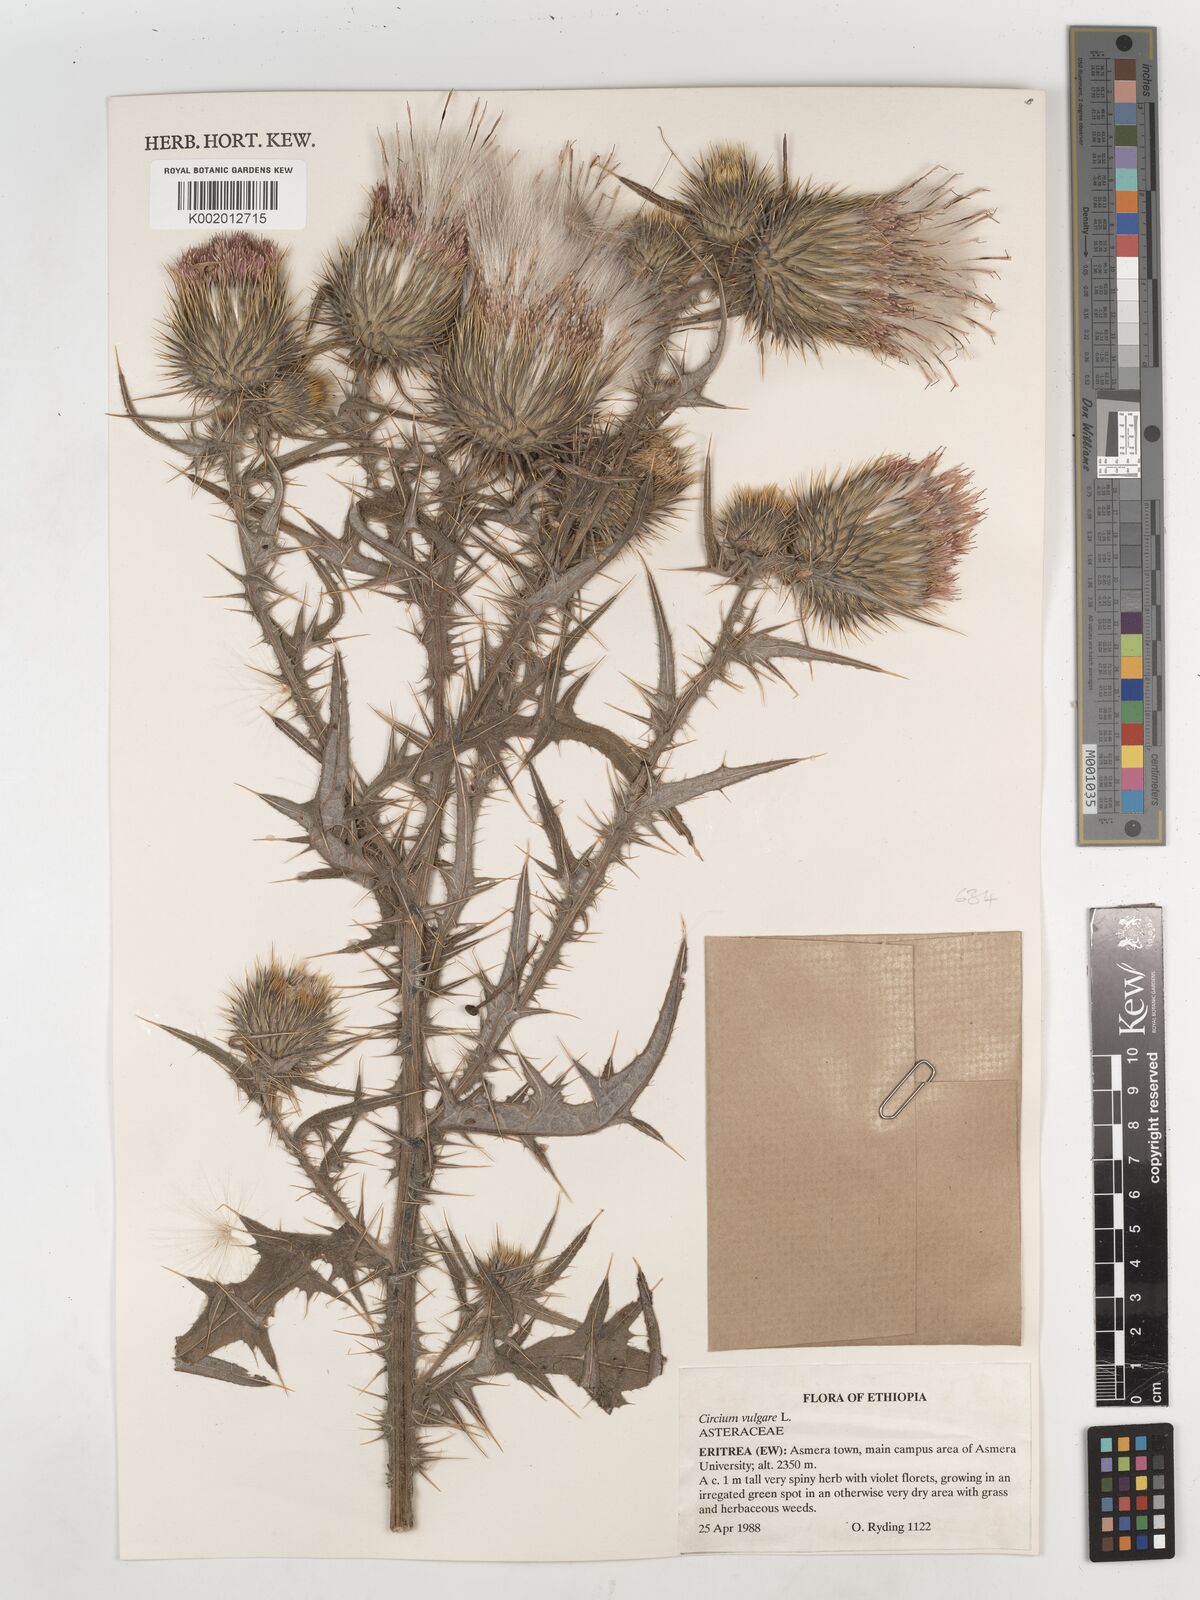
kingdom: Plantae
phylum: Tracheophyta
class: Magnoliopsida
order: Asterales
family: Asteraceae
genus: Cirsium
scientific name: Cirsium vulgare
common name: Bull thistle
